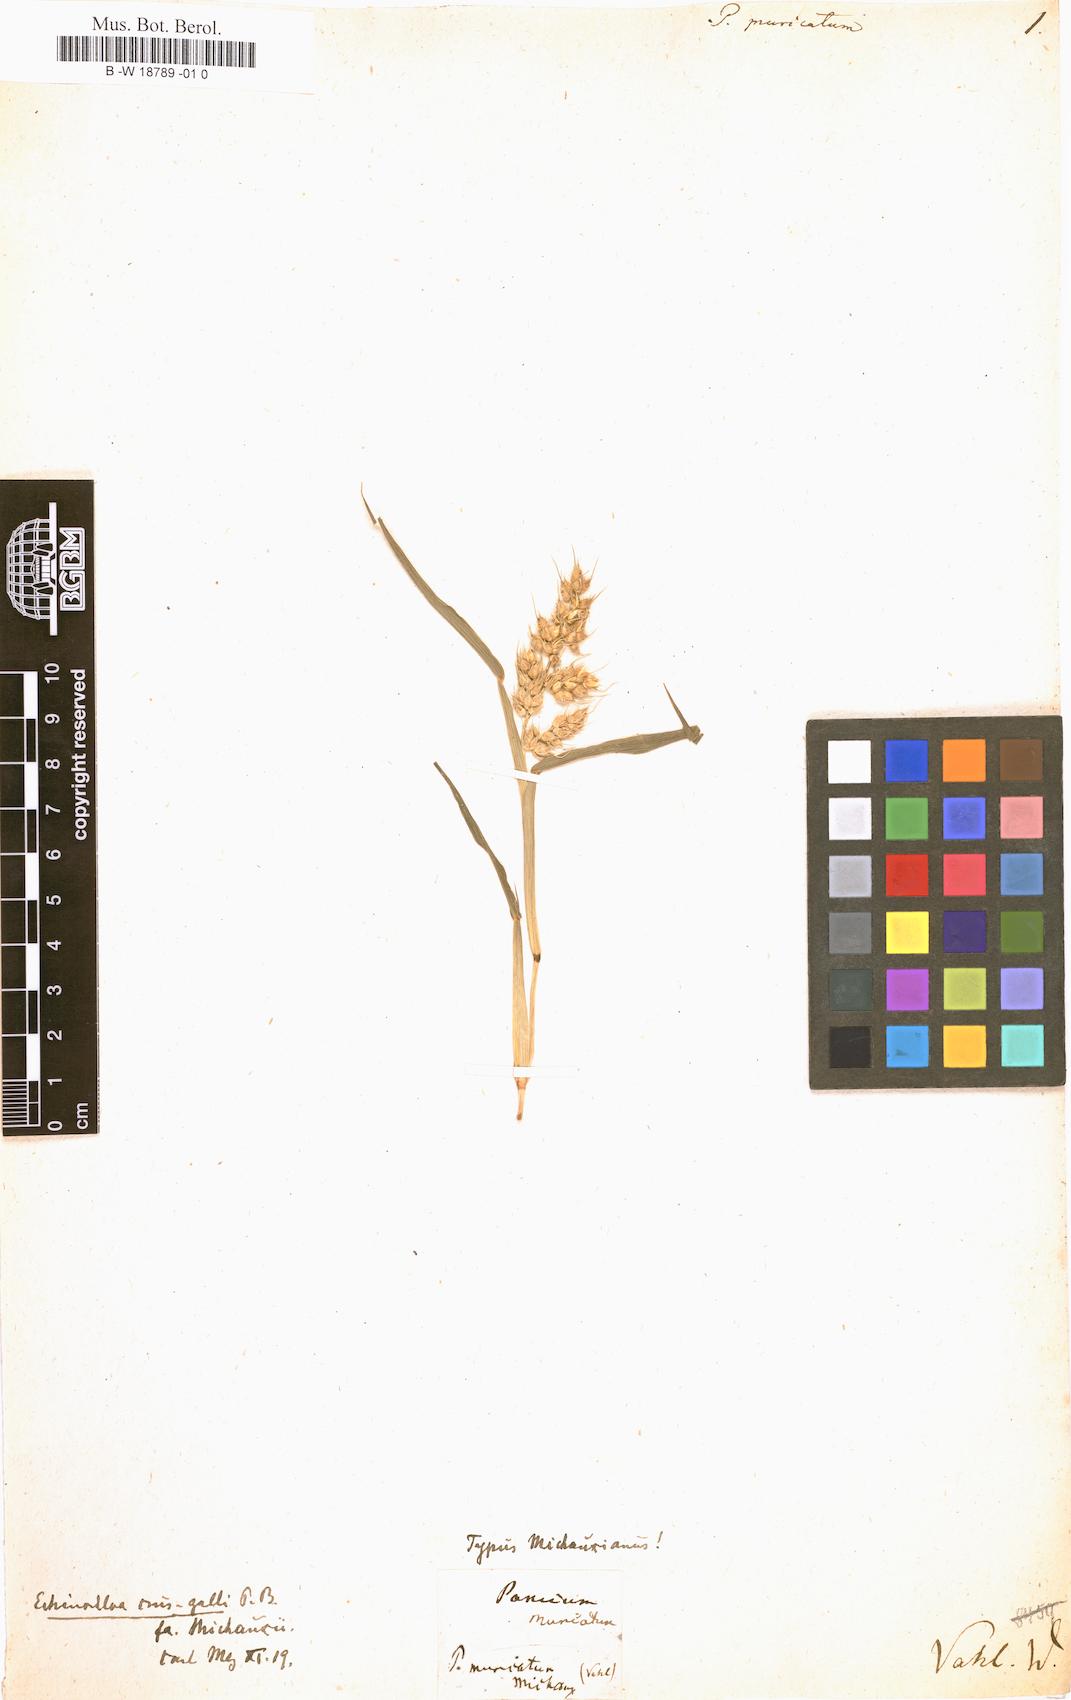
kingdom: Plantae
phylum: Tracheophyta
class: Liliopsida
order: Poales
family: Poaceae
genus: Cyrtococcum
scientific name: Cyrtococcum patens
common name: Broad-leaved bowgrass
